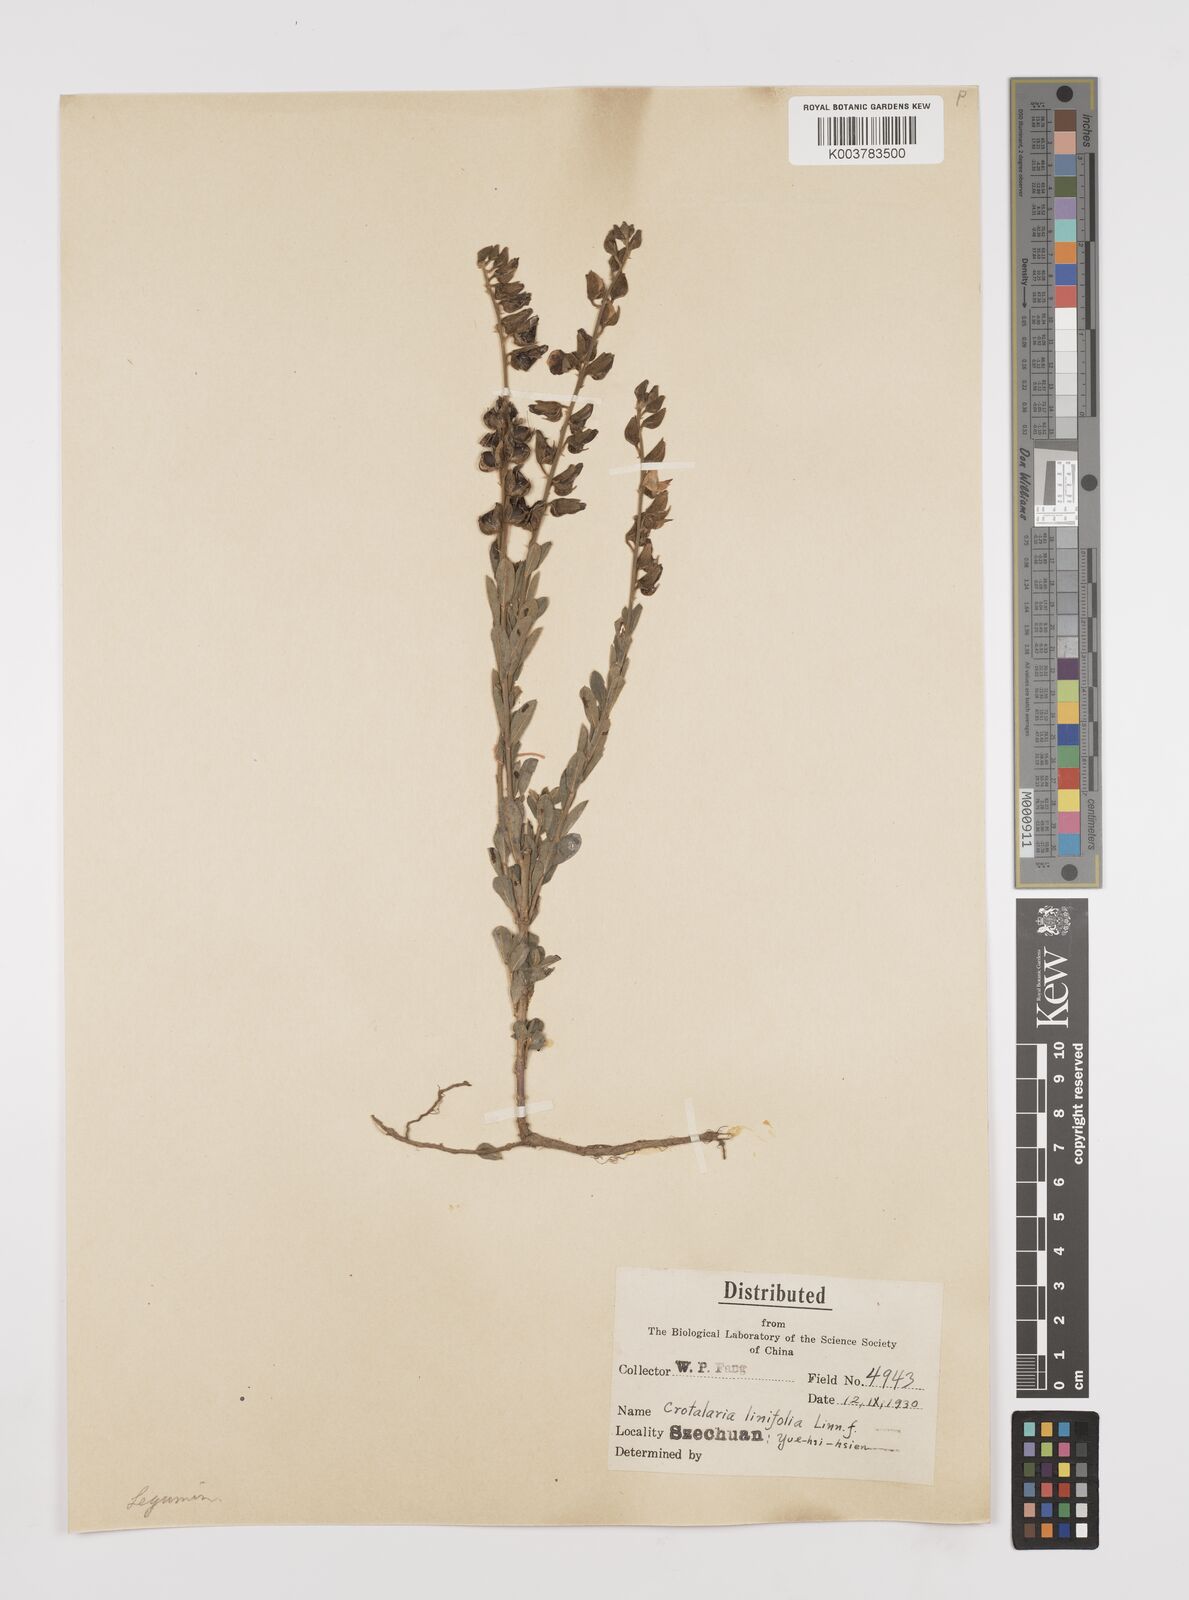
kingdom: Plantae
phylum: Tracheophyta
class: Magnoliopsida
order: Fabales
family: Fabaceae
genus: Crotalaria
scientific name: Crotalaria linifolia
